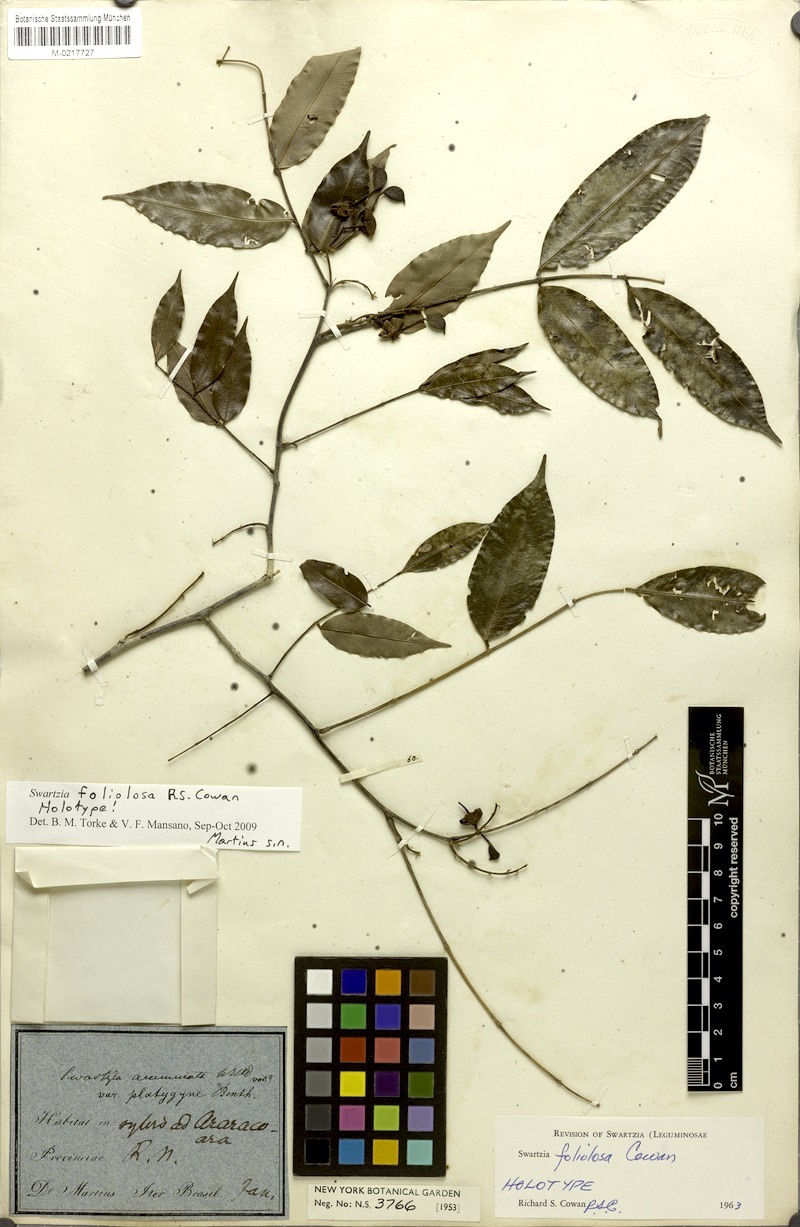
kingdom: Plantae
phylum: Tracheophyta
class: Magnoliopsida
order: Fabales
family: Fabaceae
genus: Swartzia
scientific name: Swartzia foliolosa
